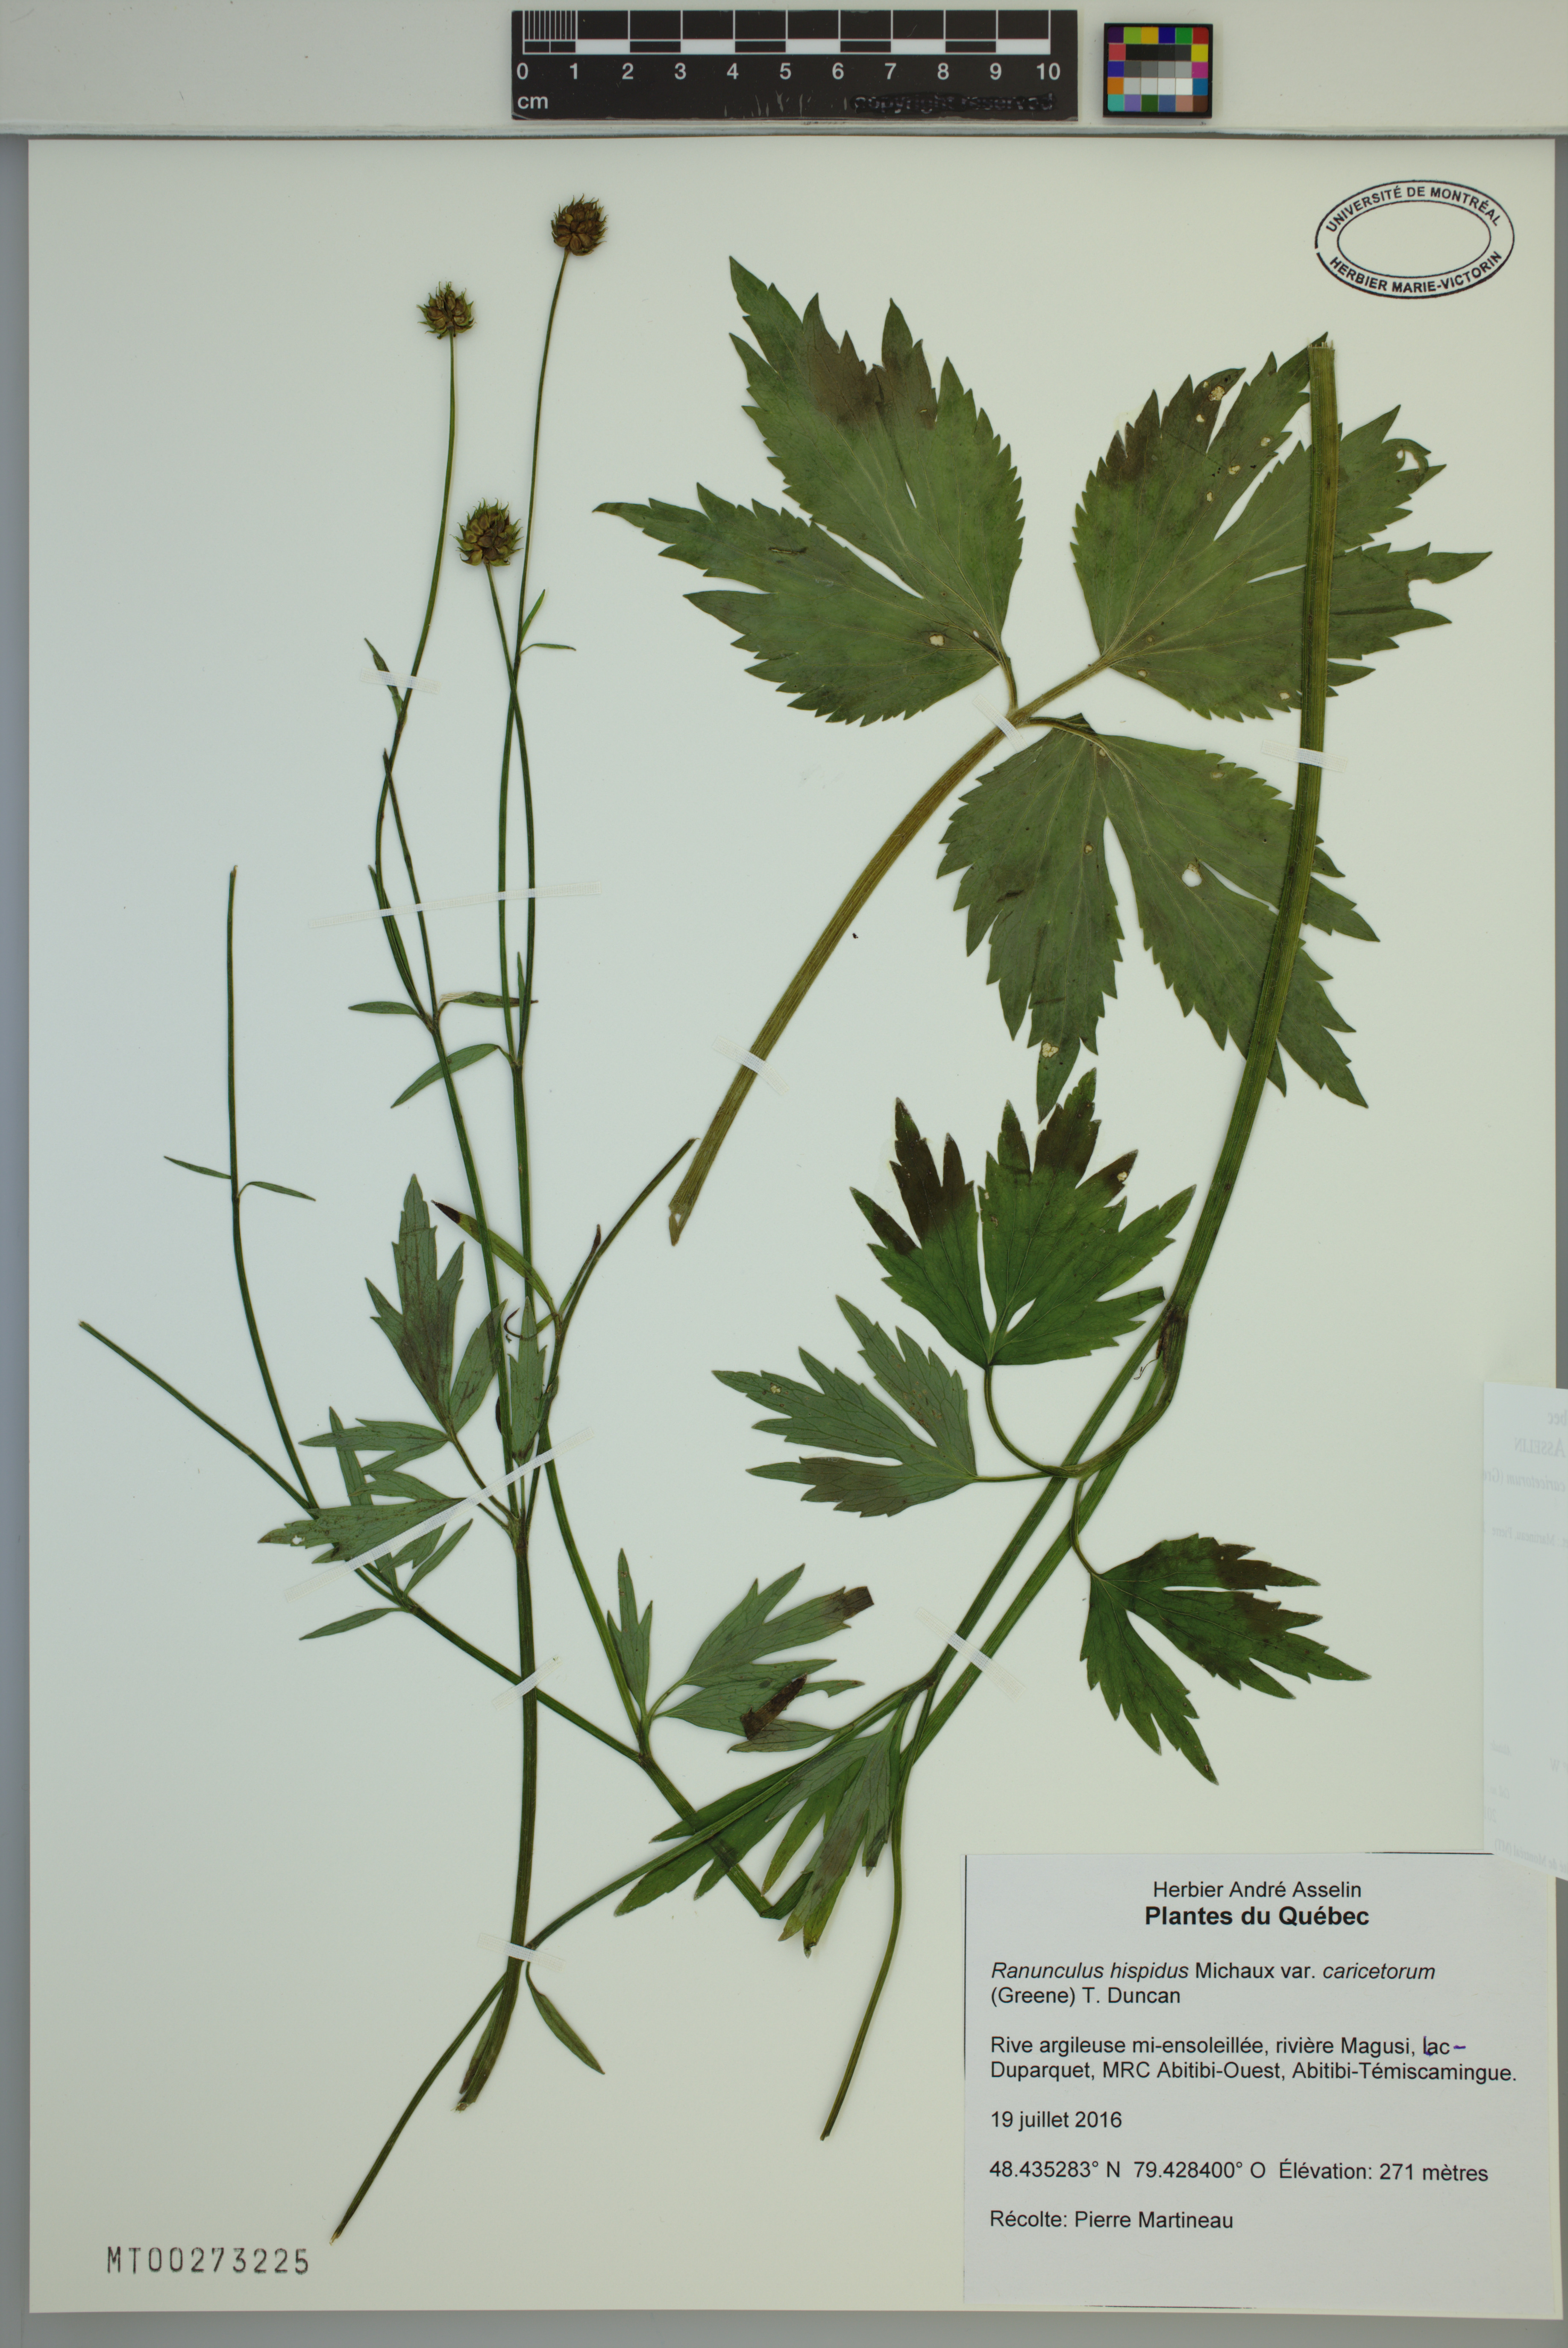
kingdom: Plantae
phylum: Tracheophyta
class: Magnoliopsida
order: Ranunculales
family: Ranunculaceae
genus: Ranunculus
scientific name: Ranunculus hispidus
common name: Bristly buttercup
